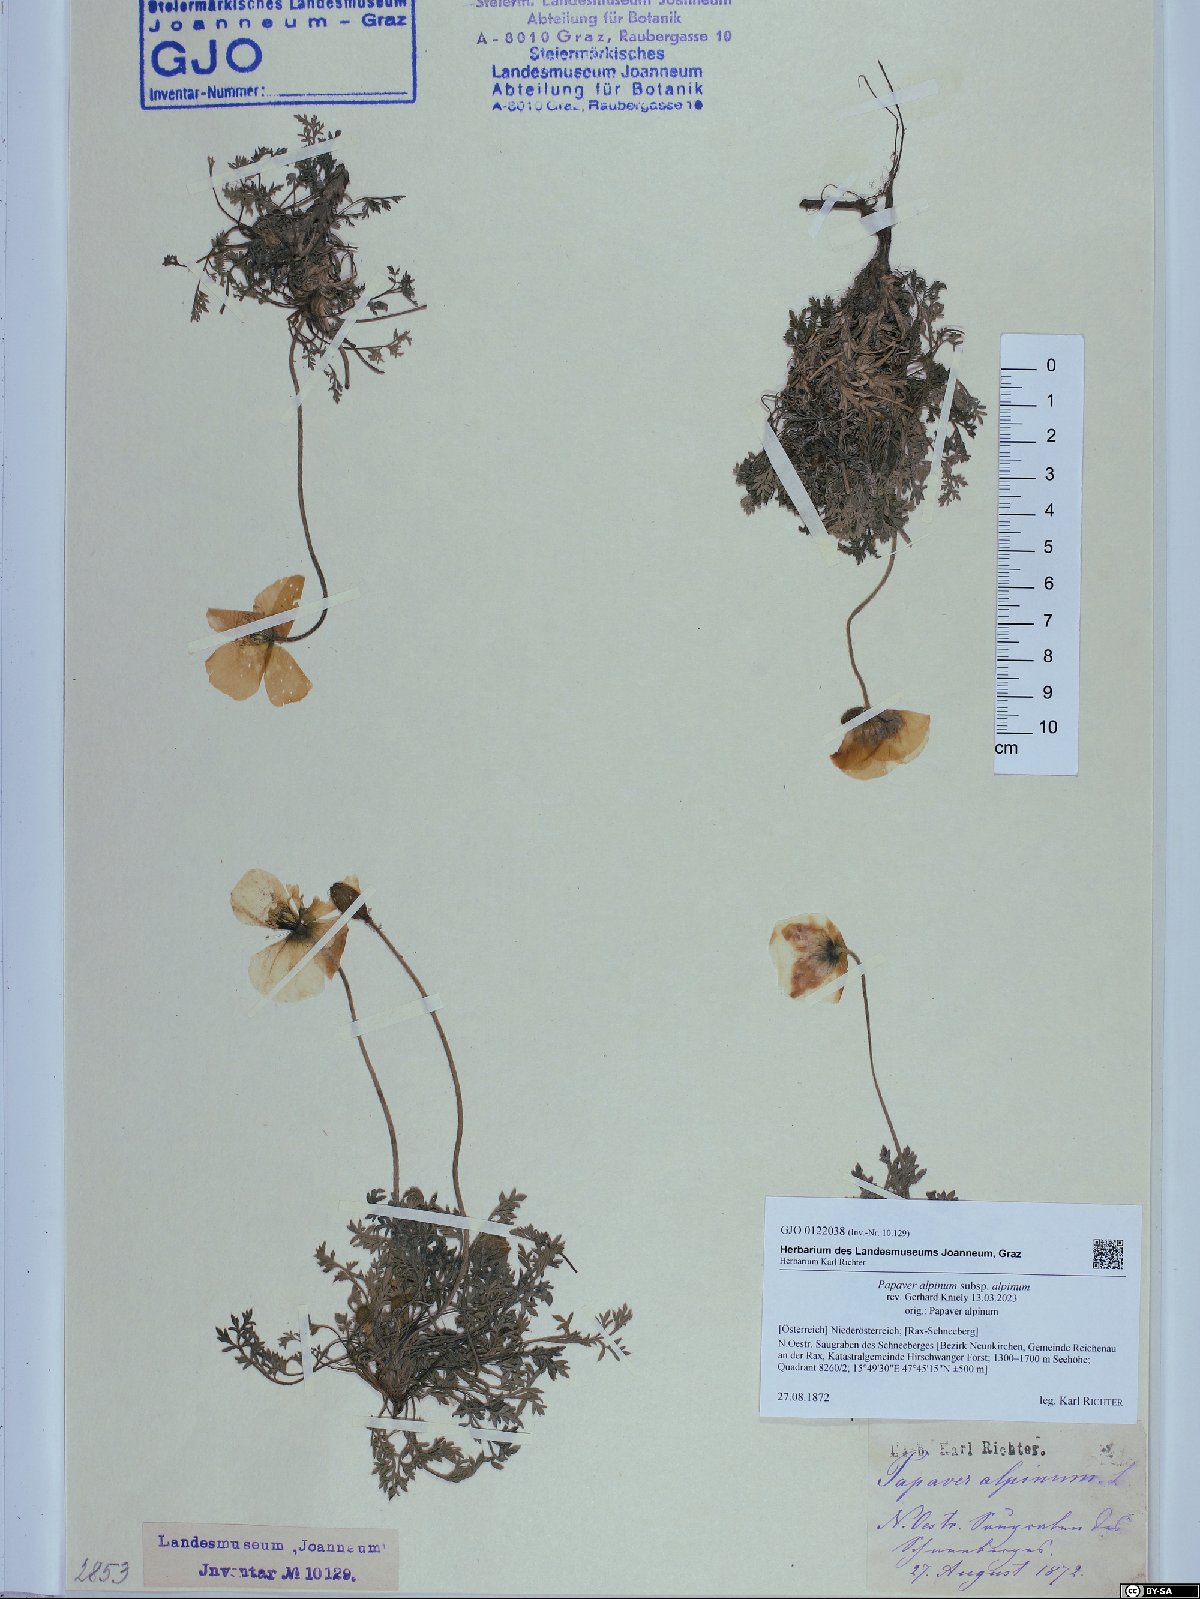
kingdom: Plantae
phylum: Tracheophyta
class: Magnoliopsida
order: Ranunculales
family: Papaveraceae
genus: Papaver
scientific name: Papaver alpinum
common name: Austrian poppy
